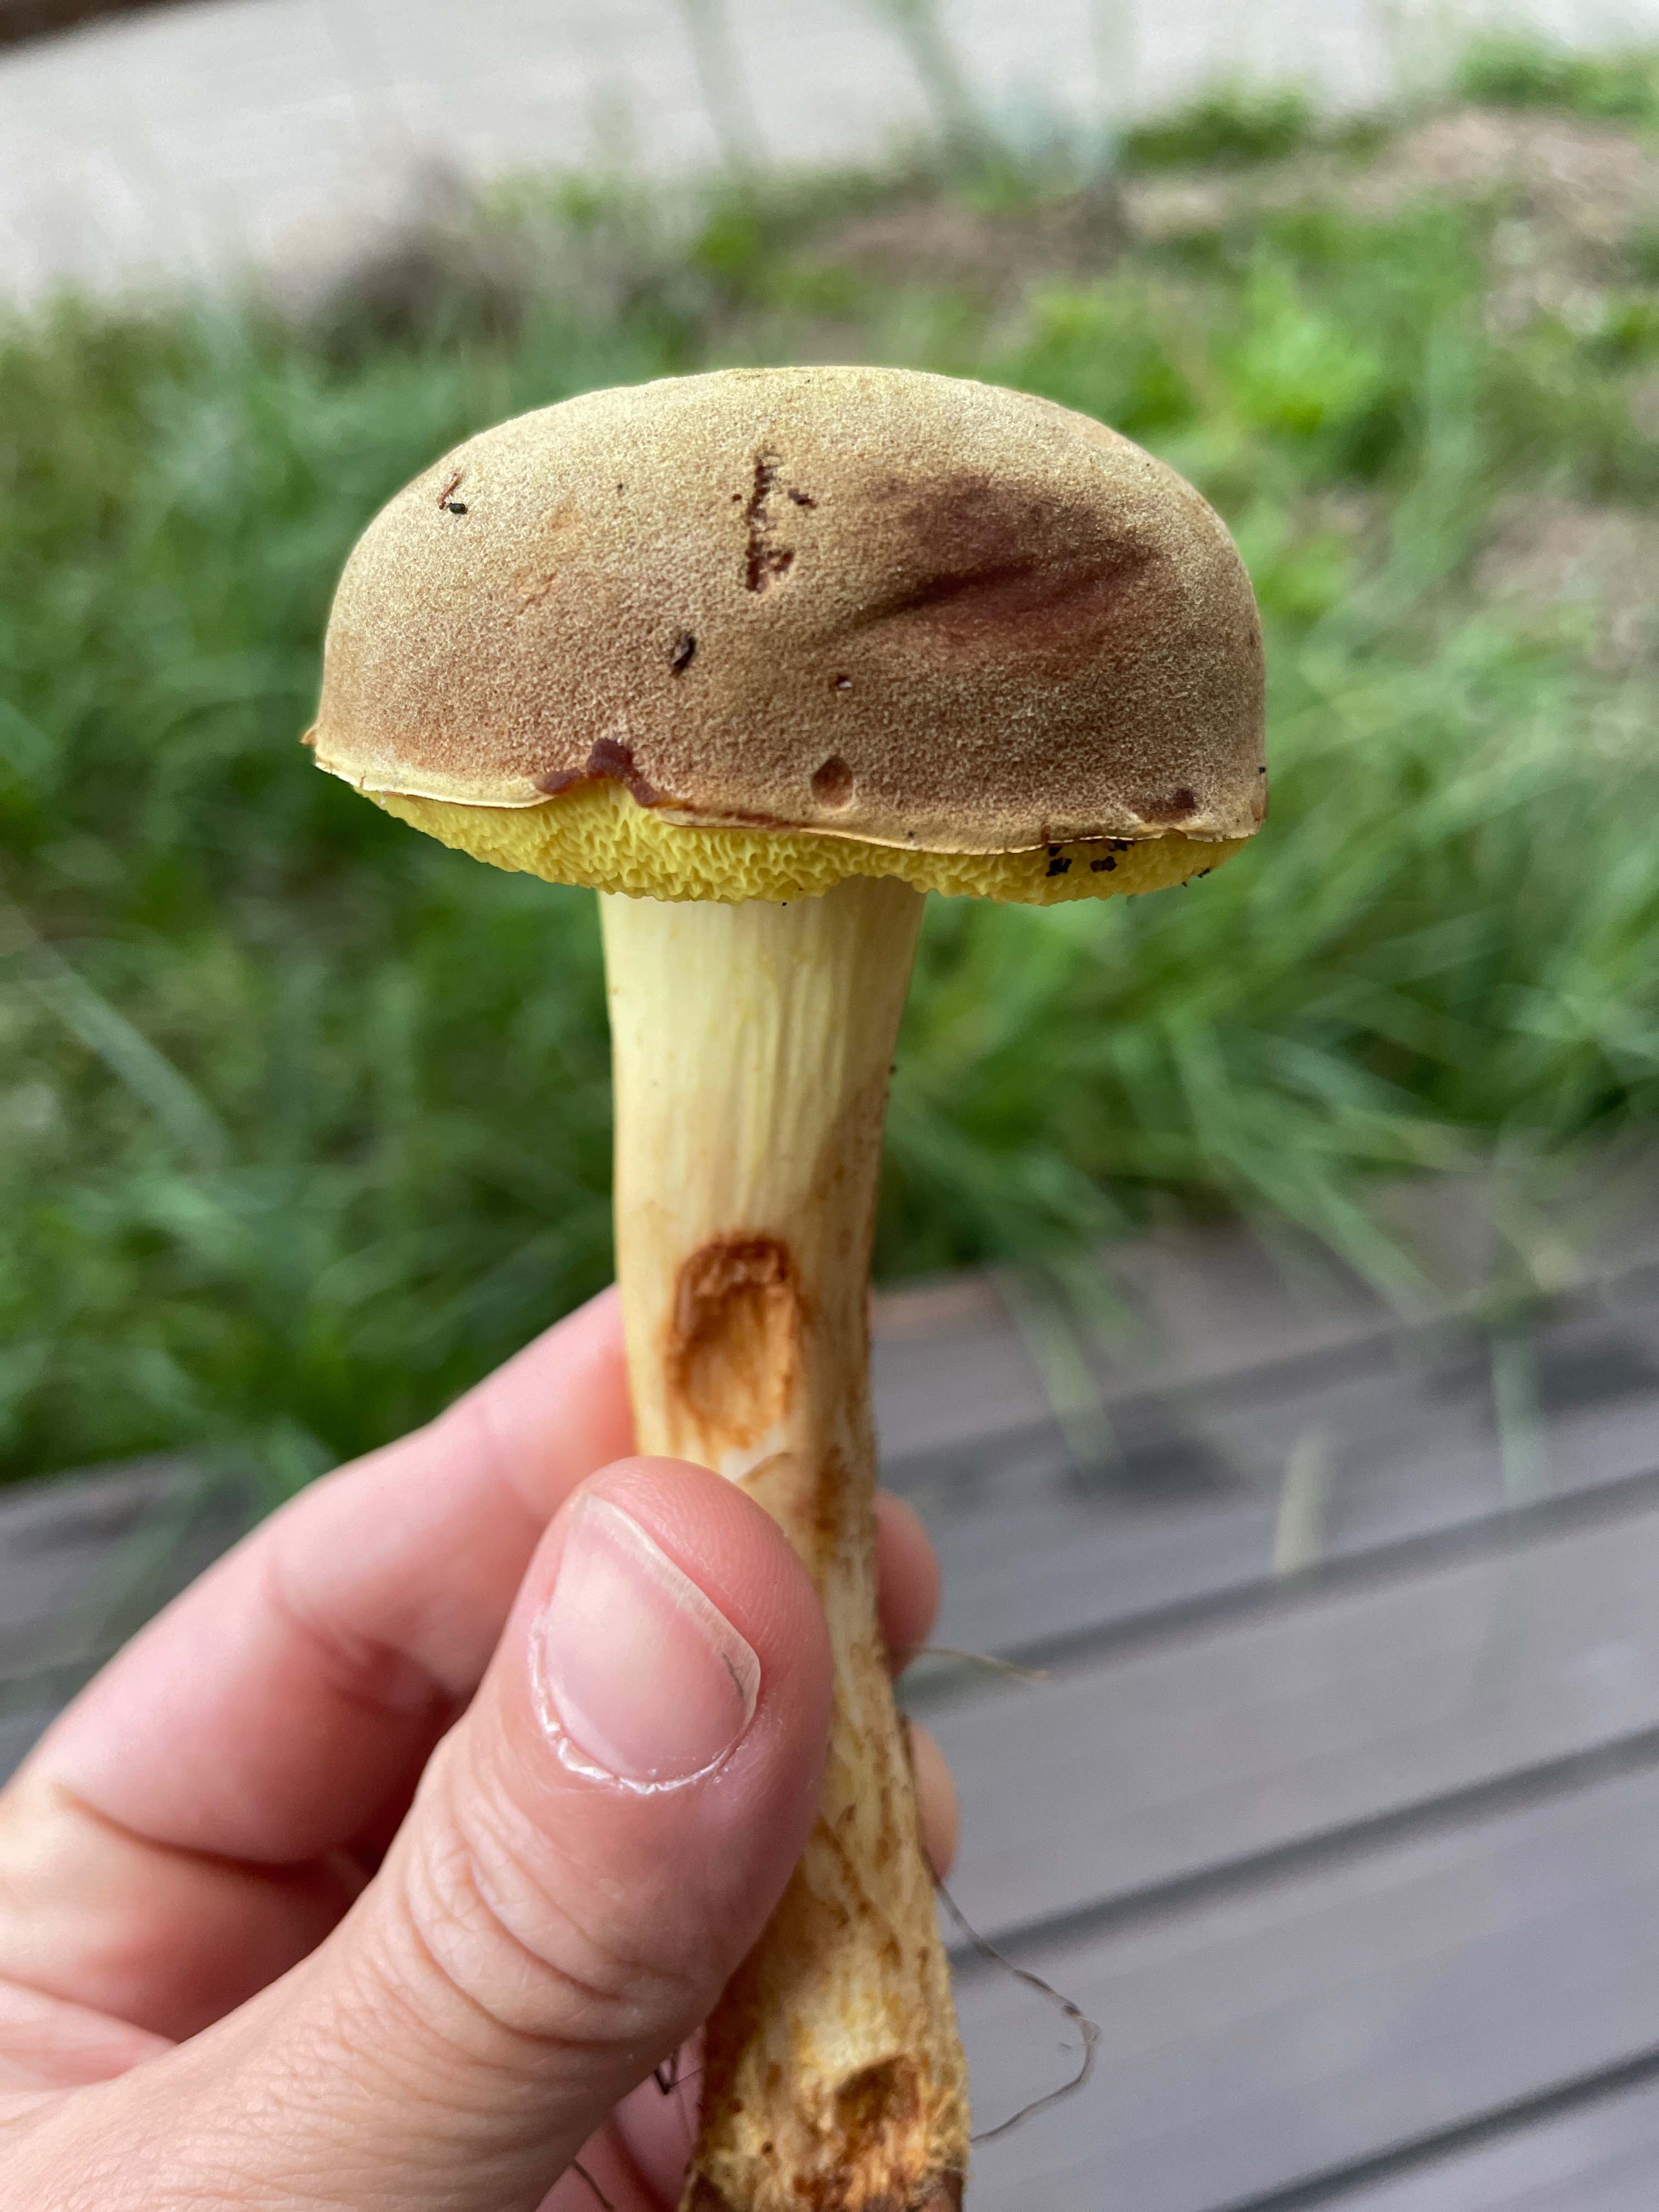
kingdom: Fungi
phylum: Basidiomycota
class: Agaricomycetes
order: Boletales
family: Boletaceae
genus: Xerocomus
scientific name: Xerocomus
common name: filtrørhat
